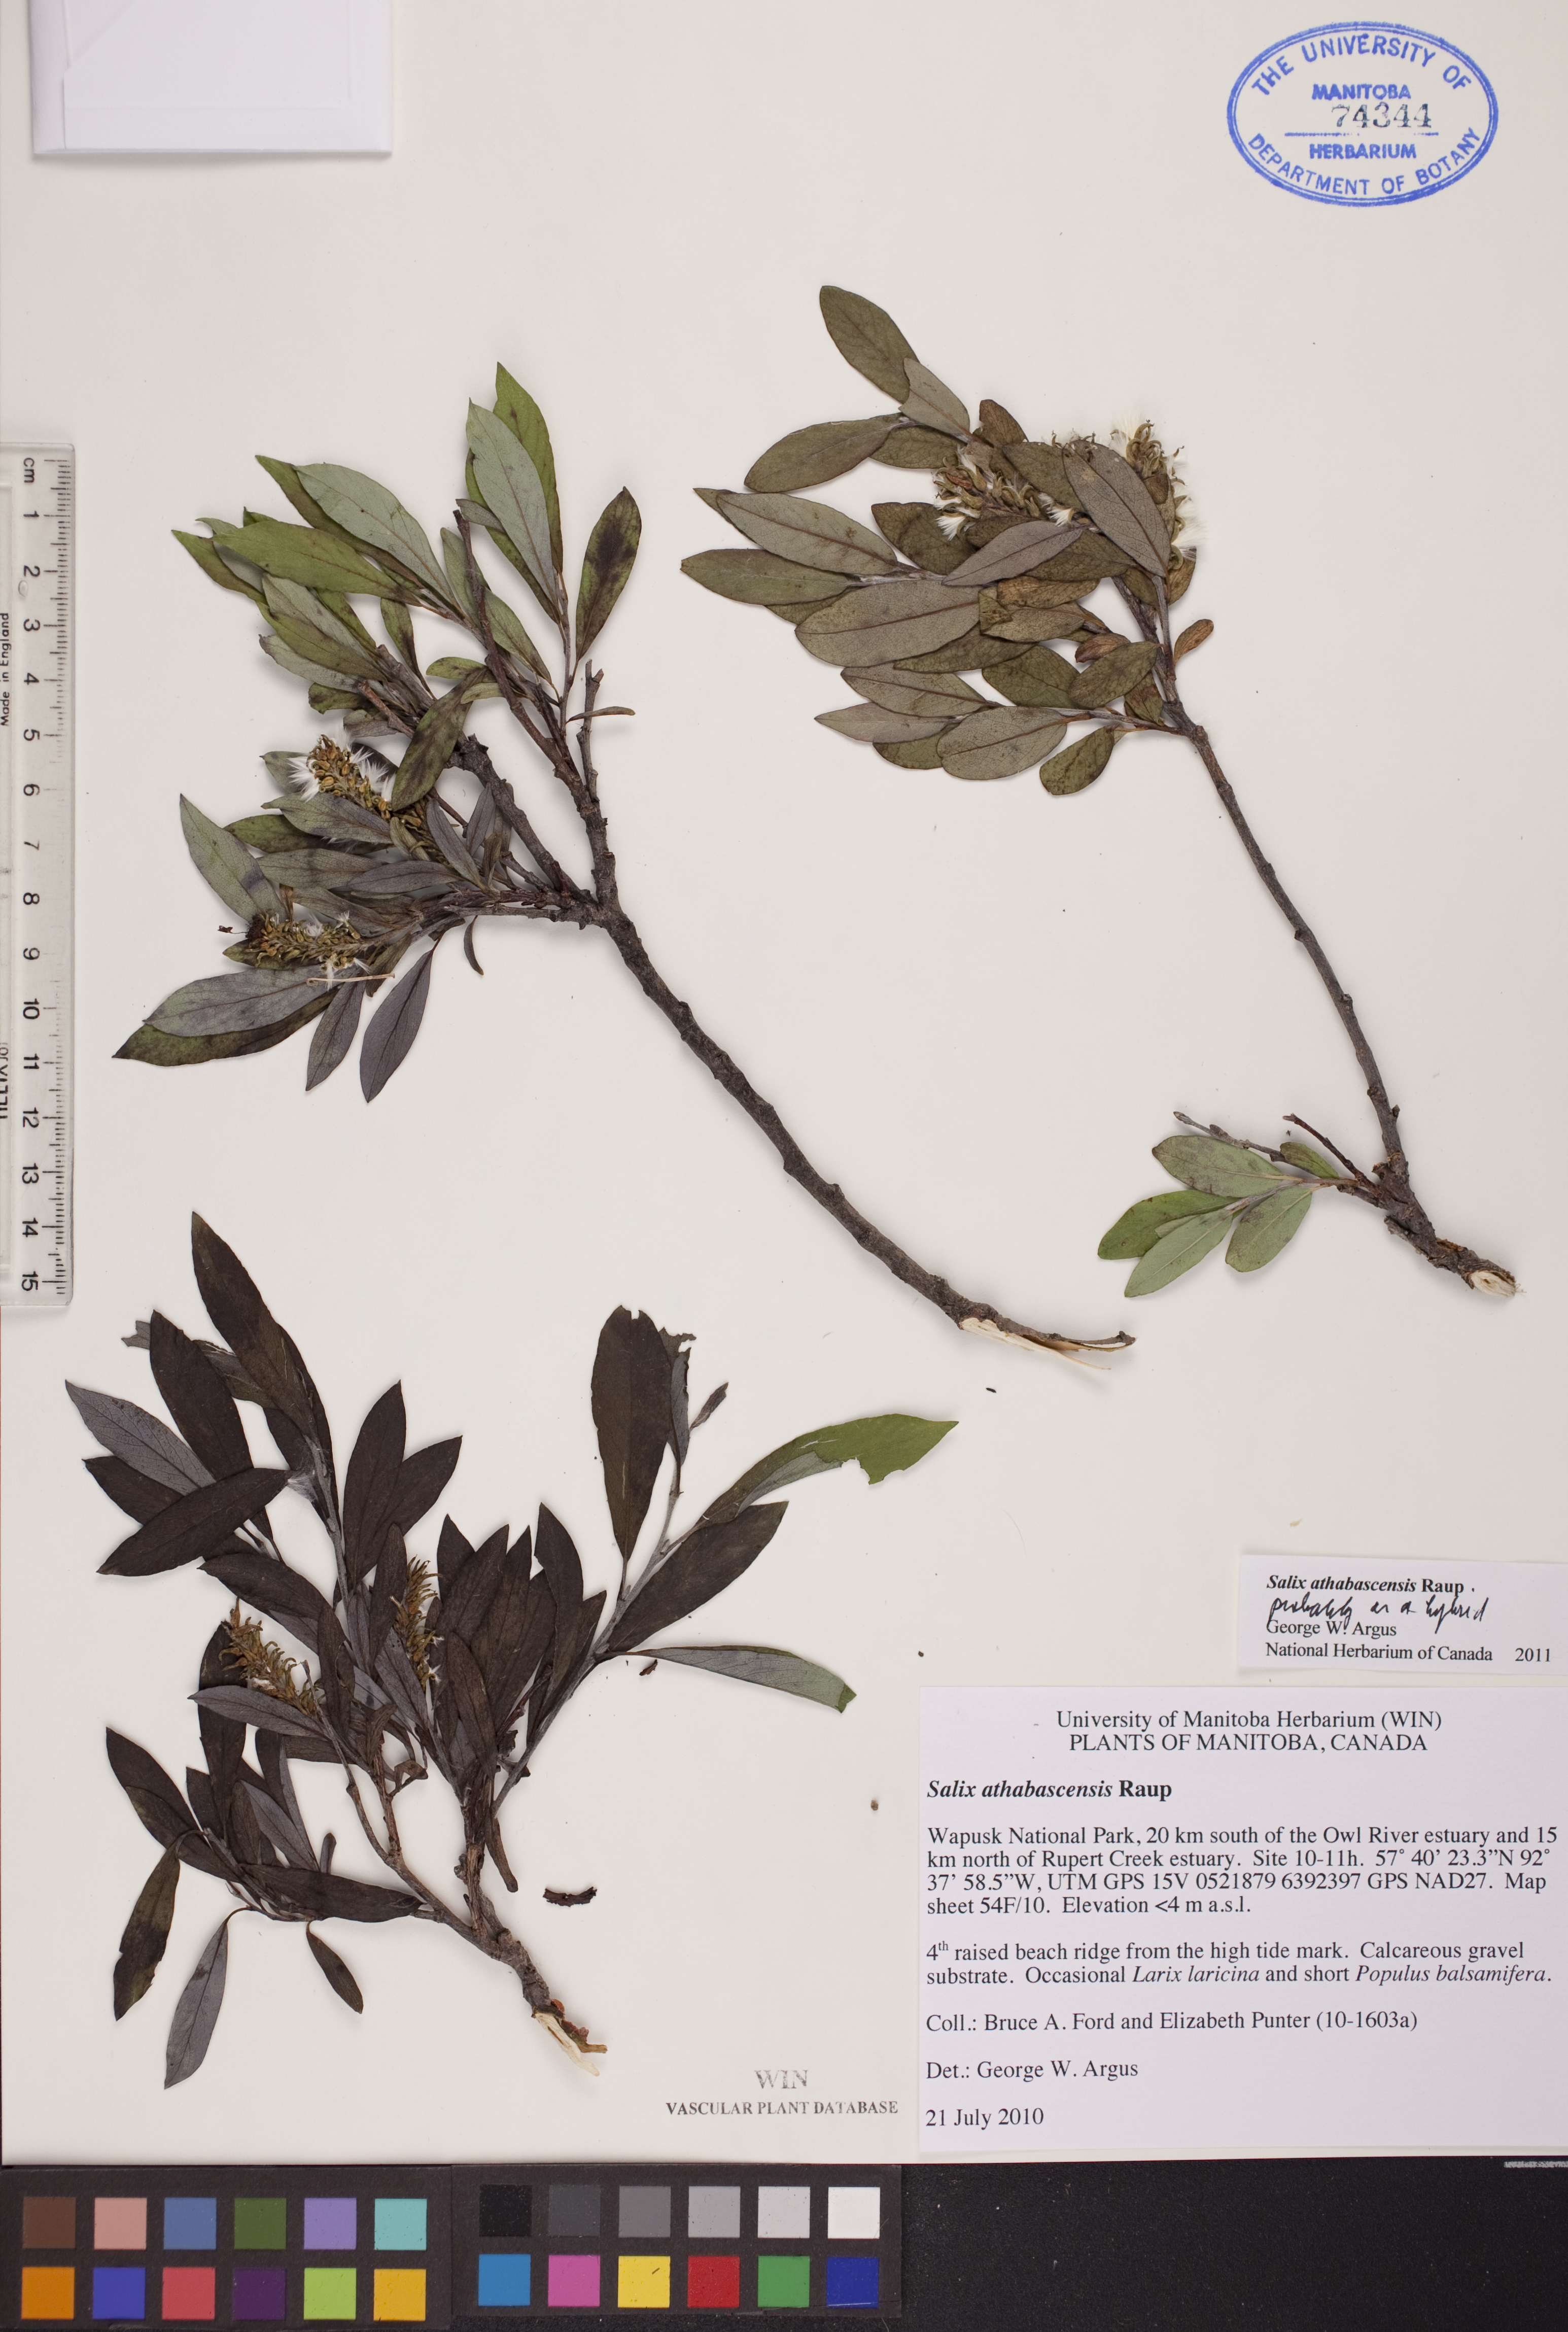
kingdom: Plantae
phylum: Tracheophyta
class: Magnoliopsida
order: Malpighiales
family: Salicaceae
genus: Salix
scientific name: Salix athabascensis
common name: Athabasca willow
